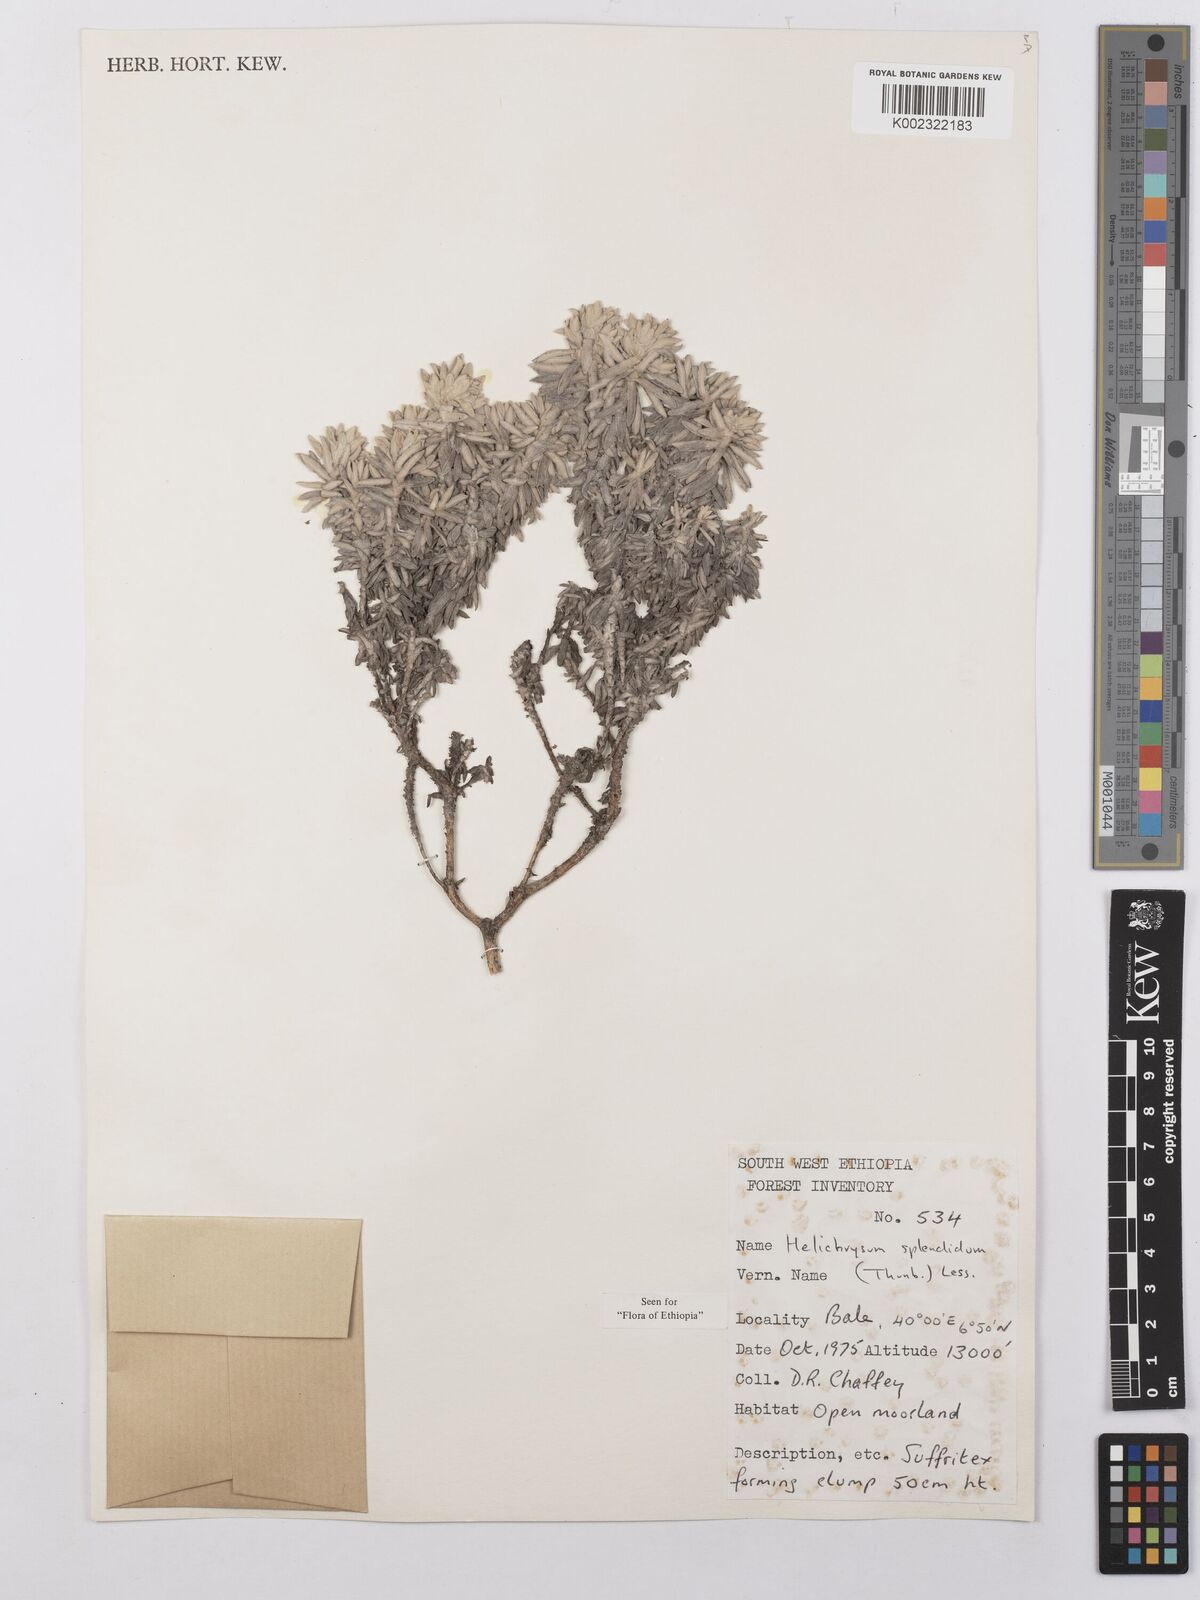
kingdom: Plantae
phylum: Tracheophyta
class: Magnoliopsida
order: Asterales
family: Asteraceae
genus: Helichrysum
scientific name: Helichrysum splendidum
